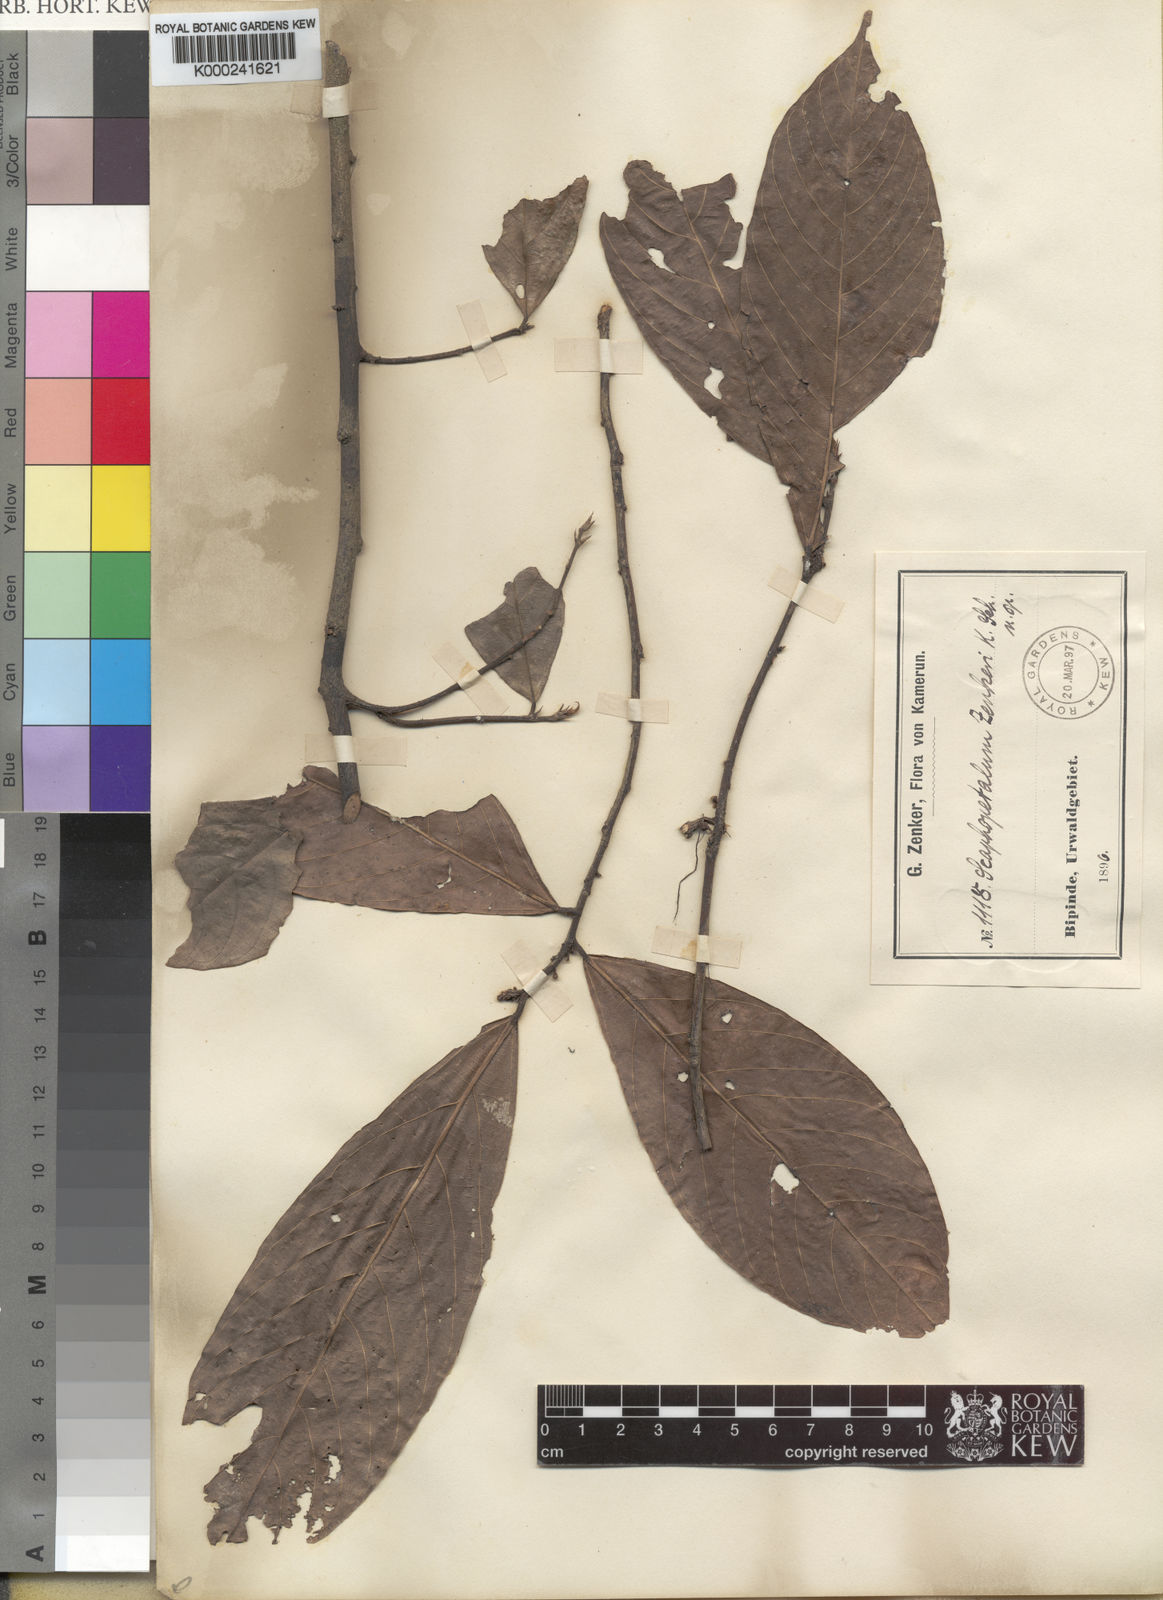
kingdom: Plantae
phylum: Tracheophyta
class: Magnoliopsida
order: Malvales
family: Malvaceae
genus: Scaphopetalum
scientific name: Scaphopetalum zenkeri
